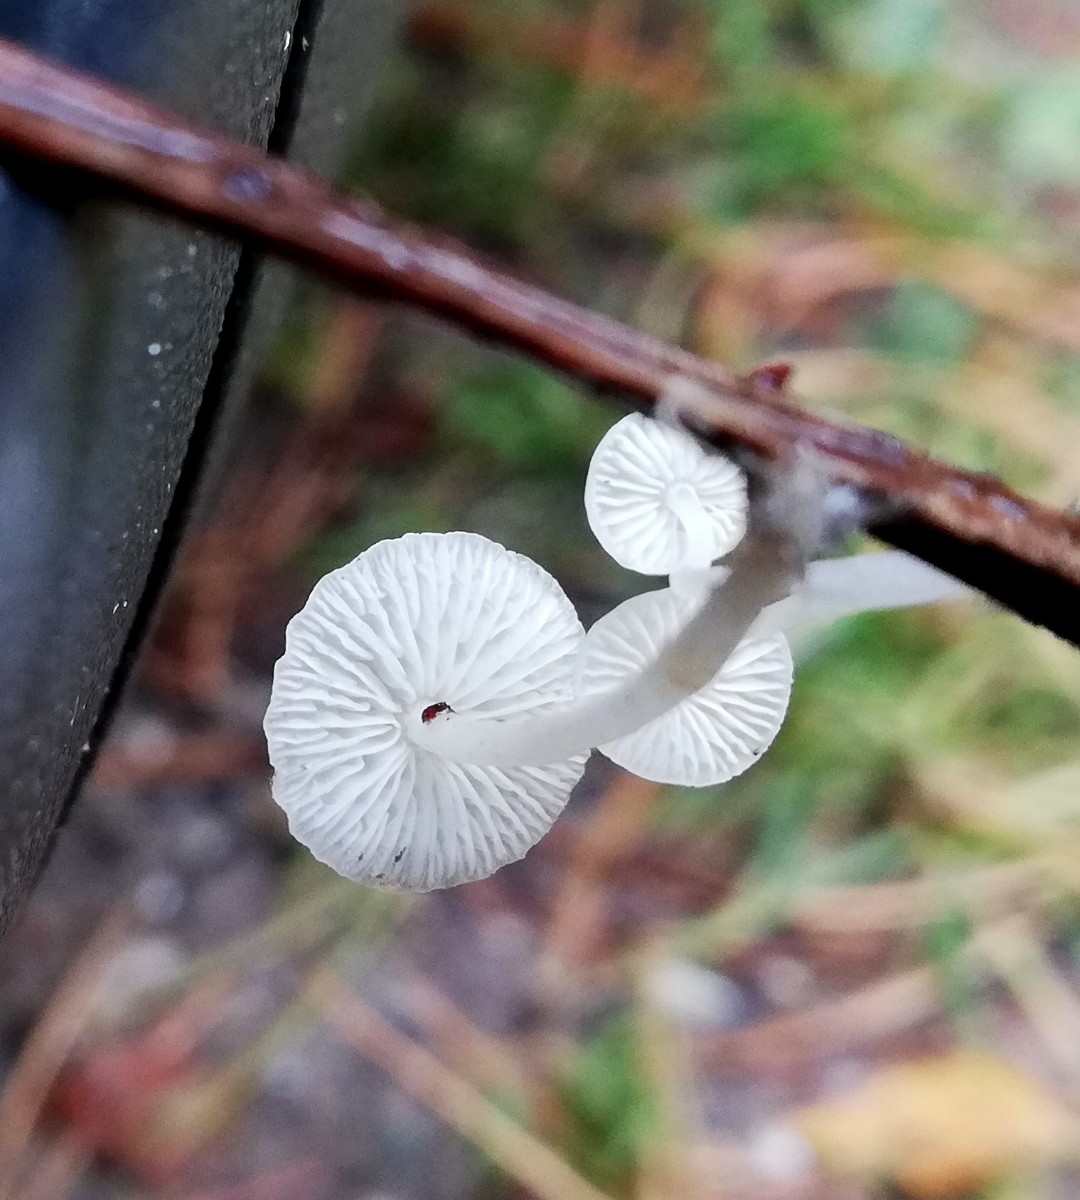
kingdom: Fungi
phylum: Basidiomycota
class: Agaricomycetes
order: Agaricales
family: Mycenaceae
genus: Hemimycena
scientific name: Hemimycena
